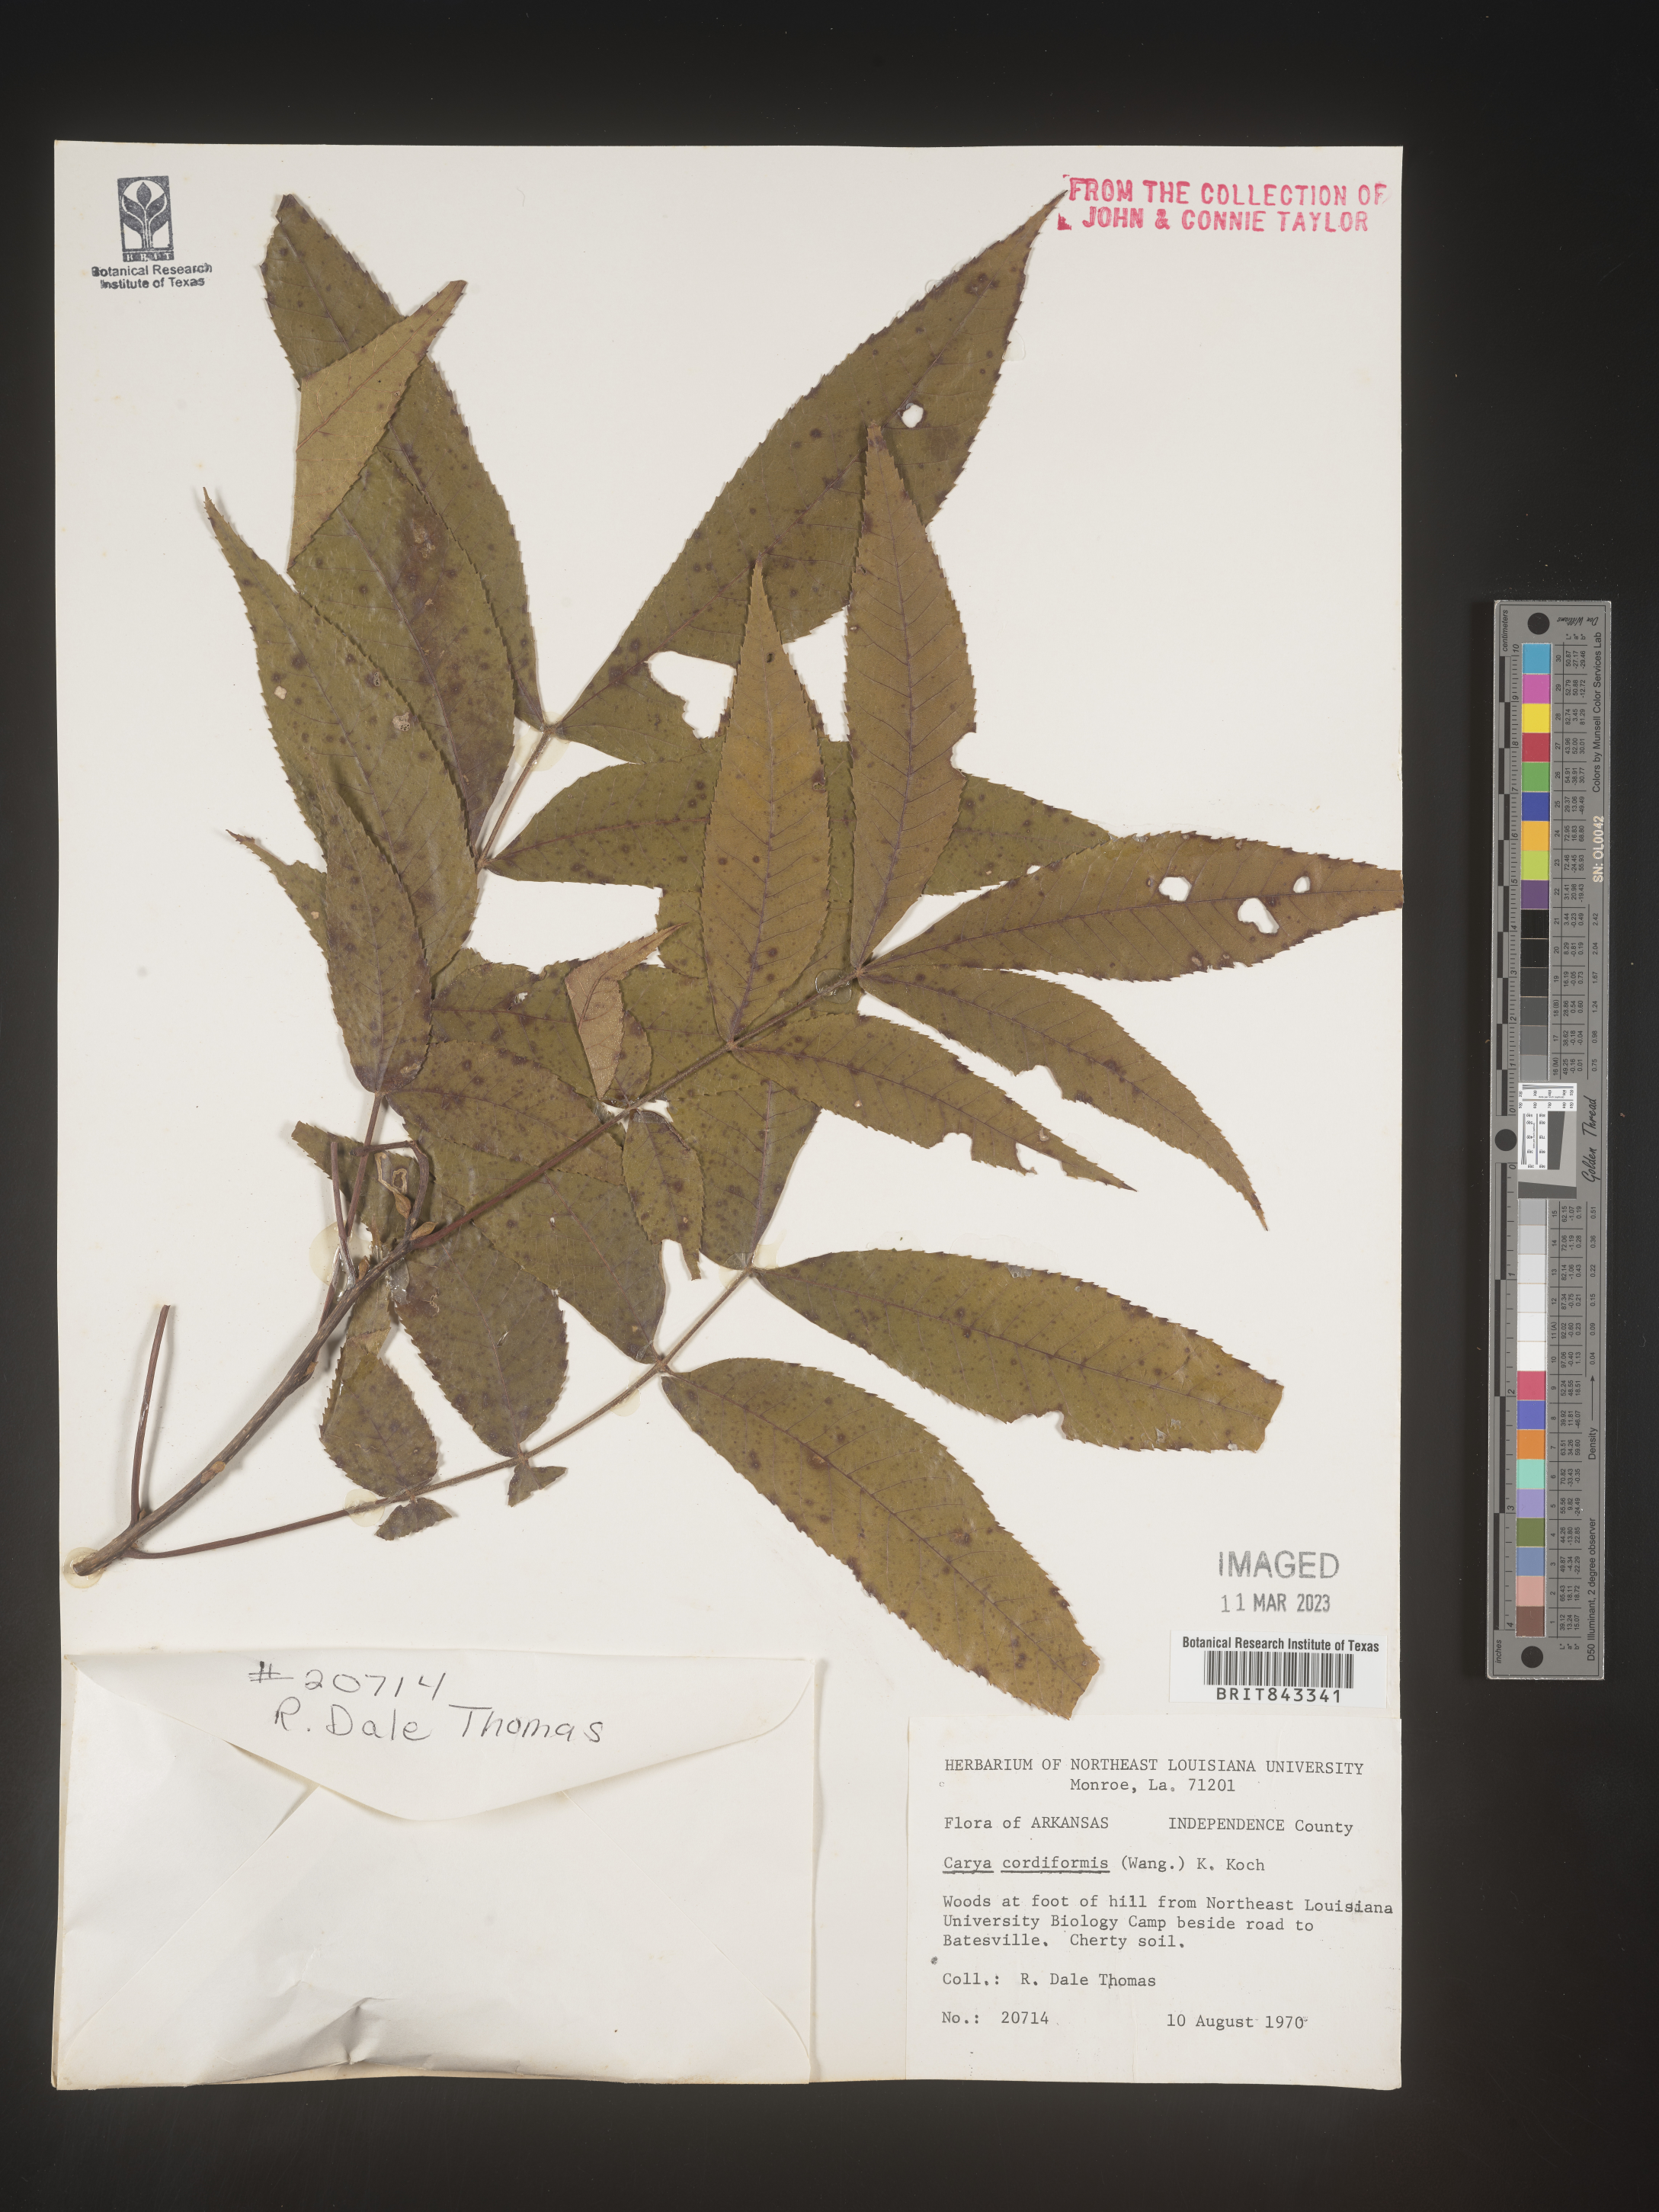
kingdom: Plantae
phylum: Tracheophyta
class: Magnoliopsida
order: Fagales
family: Juglandaceae
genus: Carya
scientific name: Carya cordiformis
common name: Bitternut hickory
